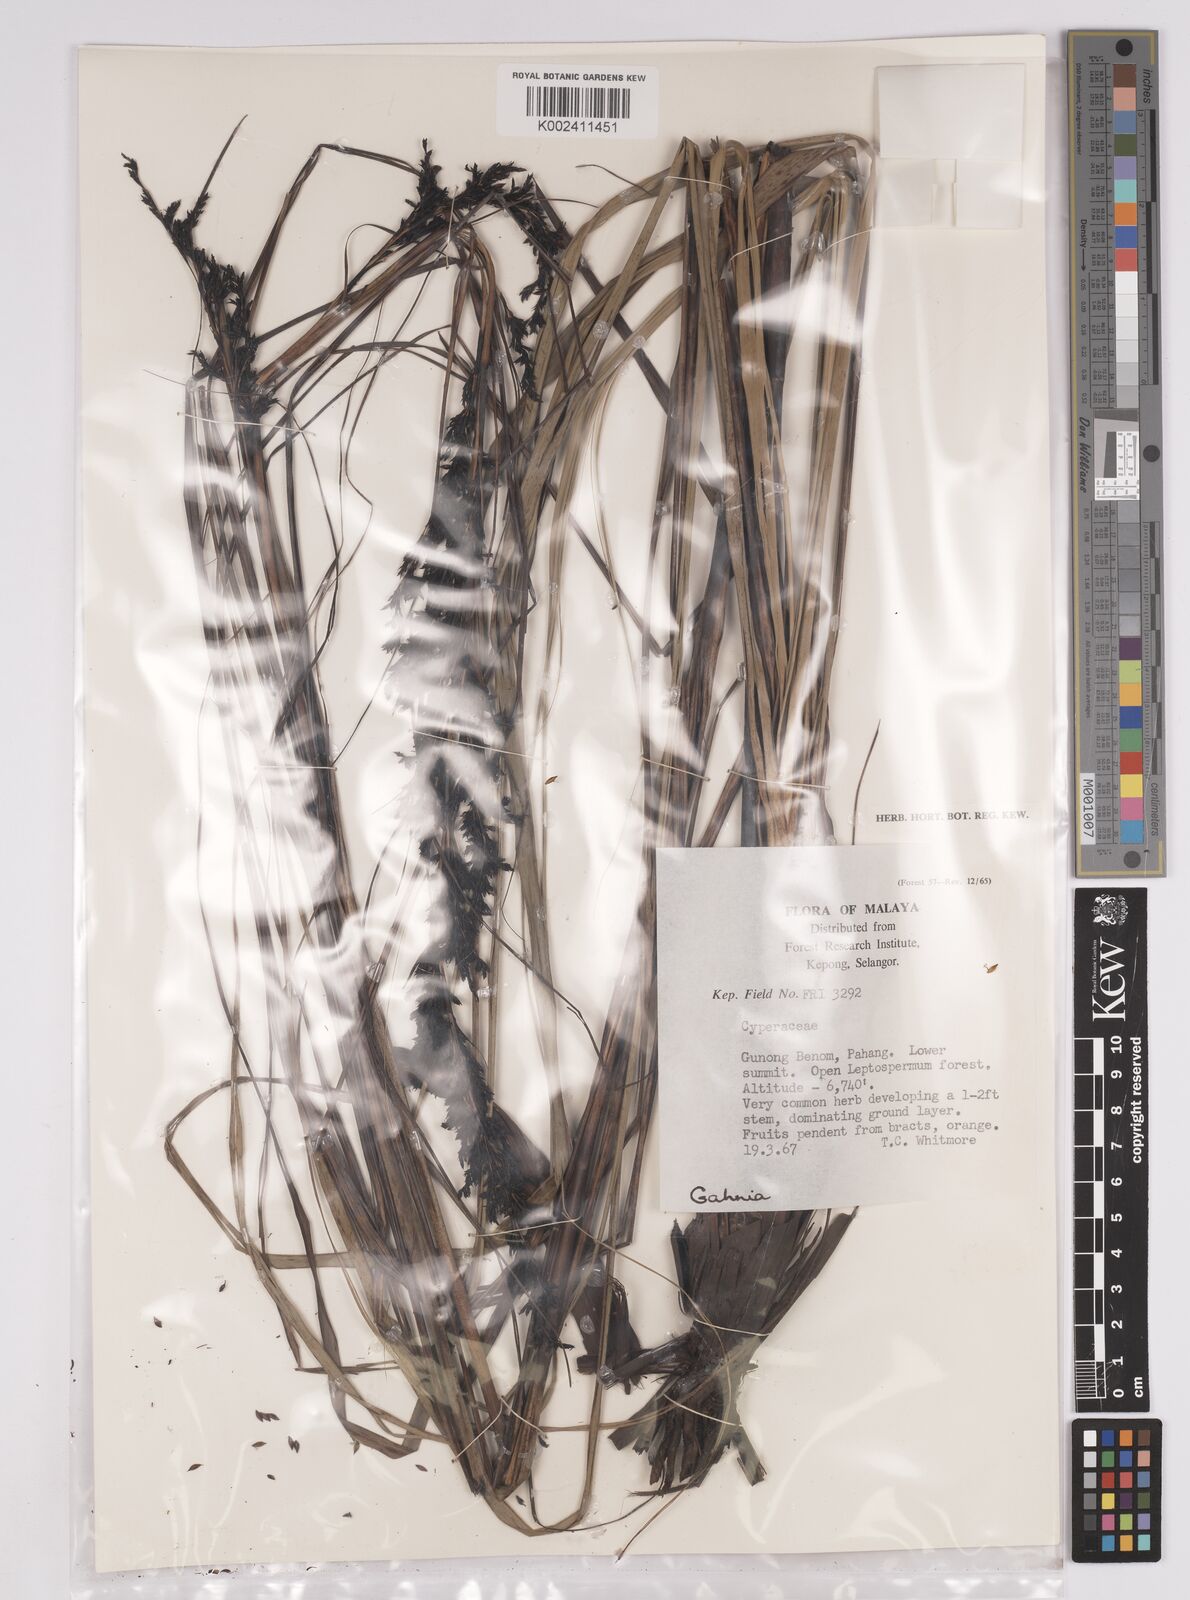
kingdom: Plantae
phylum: Tracheophyta
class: Liliopsida
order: Poales
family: Cyperaceae
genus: Gahnia
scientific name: Gahnia
